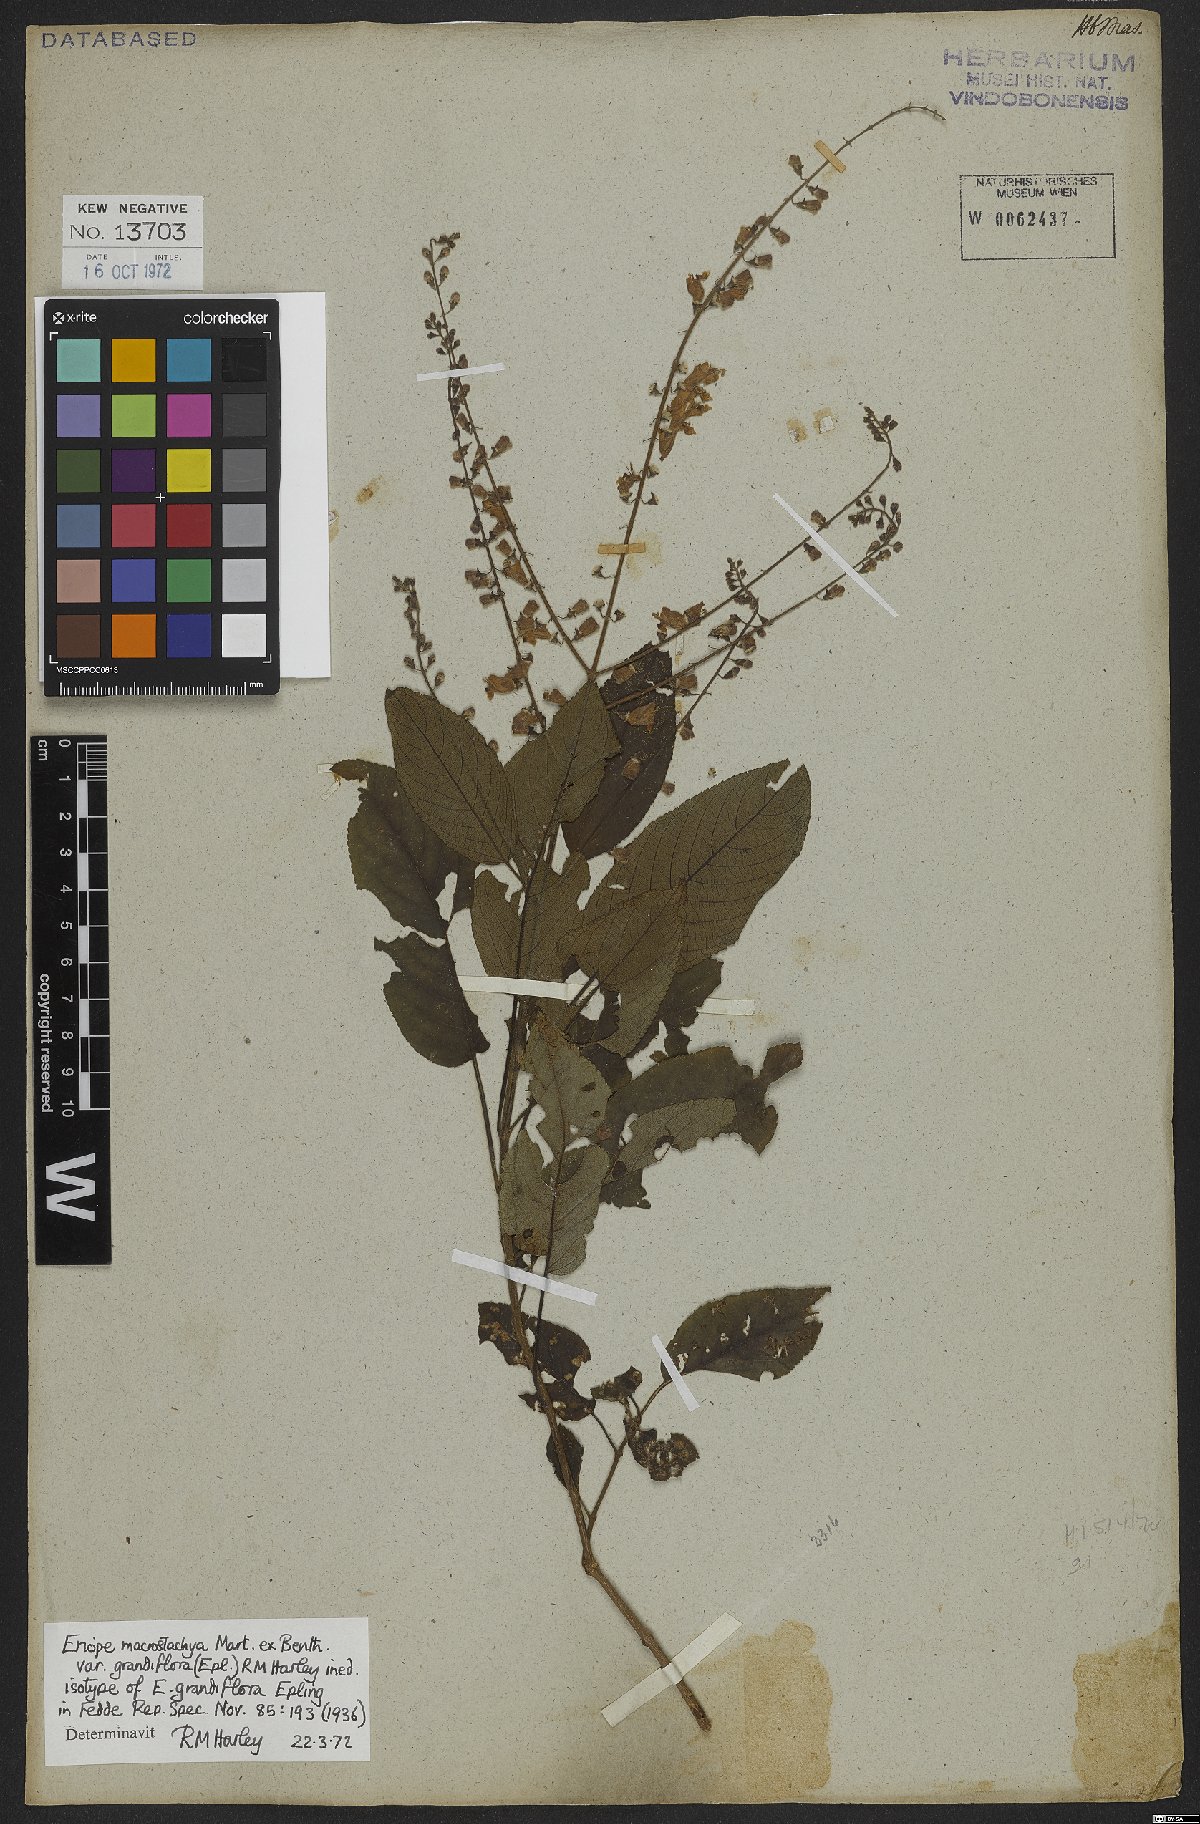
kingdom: Plantae
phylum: Tracheophyta
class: Magnoliopsida
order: Lamiales
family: Lamiaceae
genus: Eriope
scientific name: Eriope macrostachya
